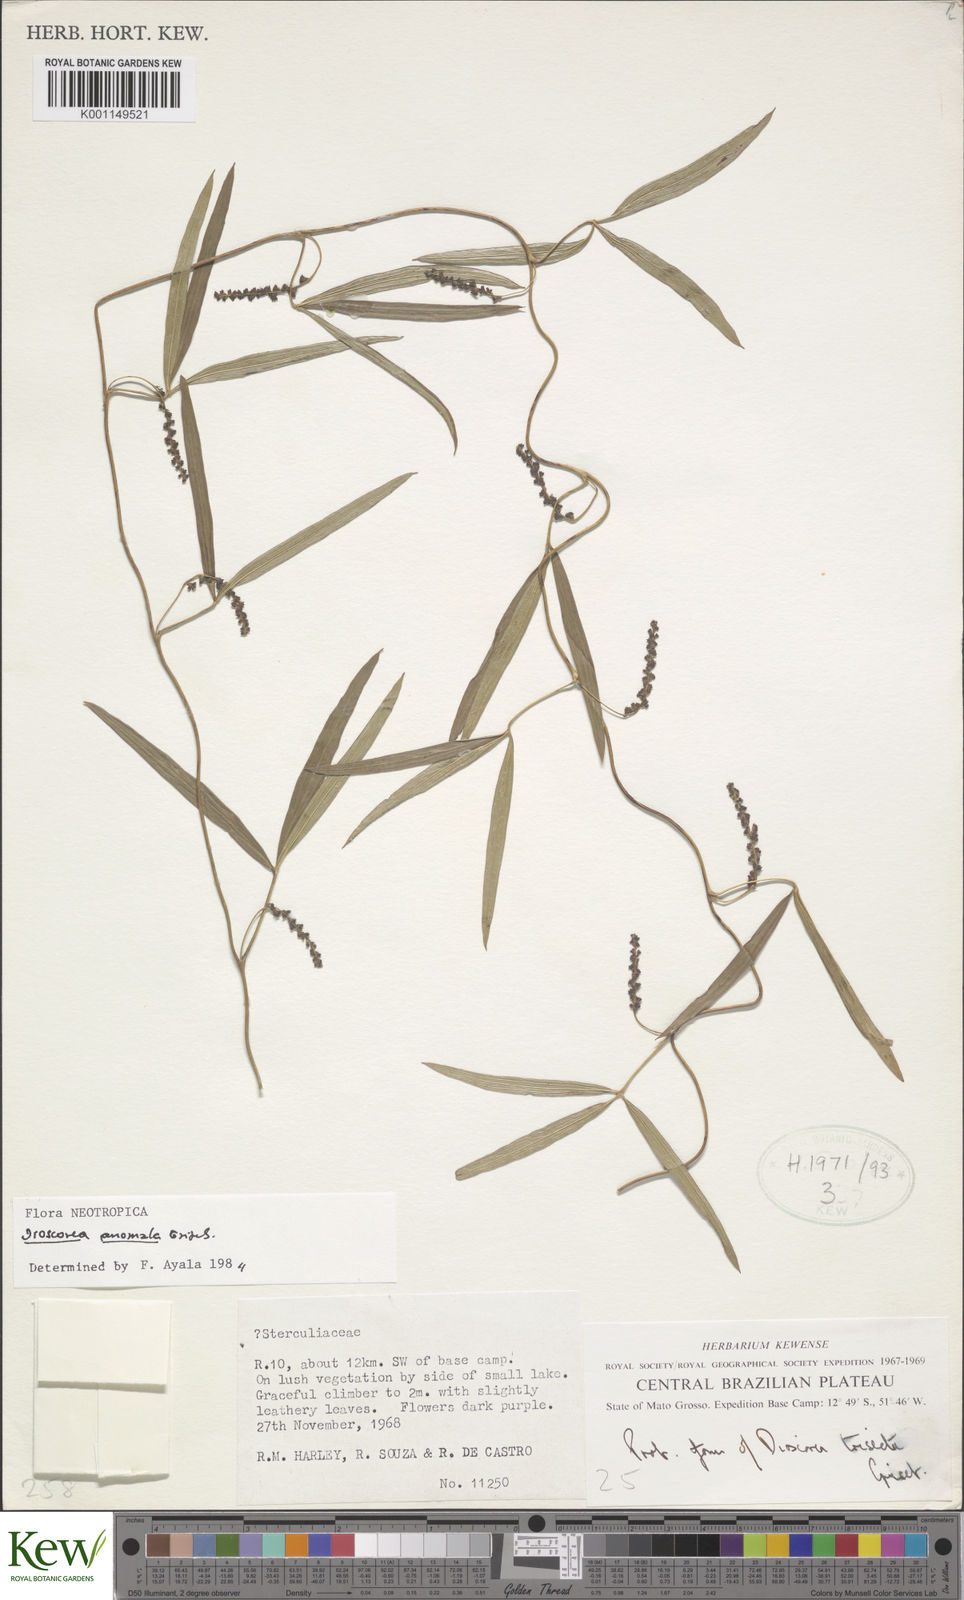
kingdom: Plantae
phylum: Tracheophyta
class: Liliopsida
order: Dioscoreales
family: Dioscoreaceae
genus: Dioscorea
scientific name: Dioscorea
